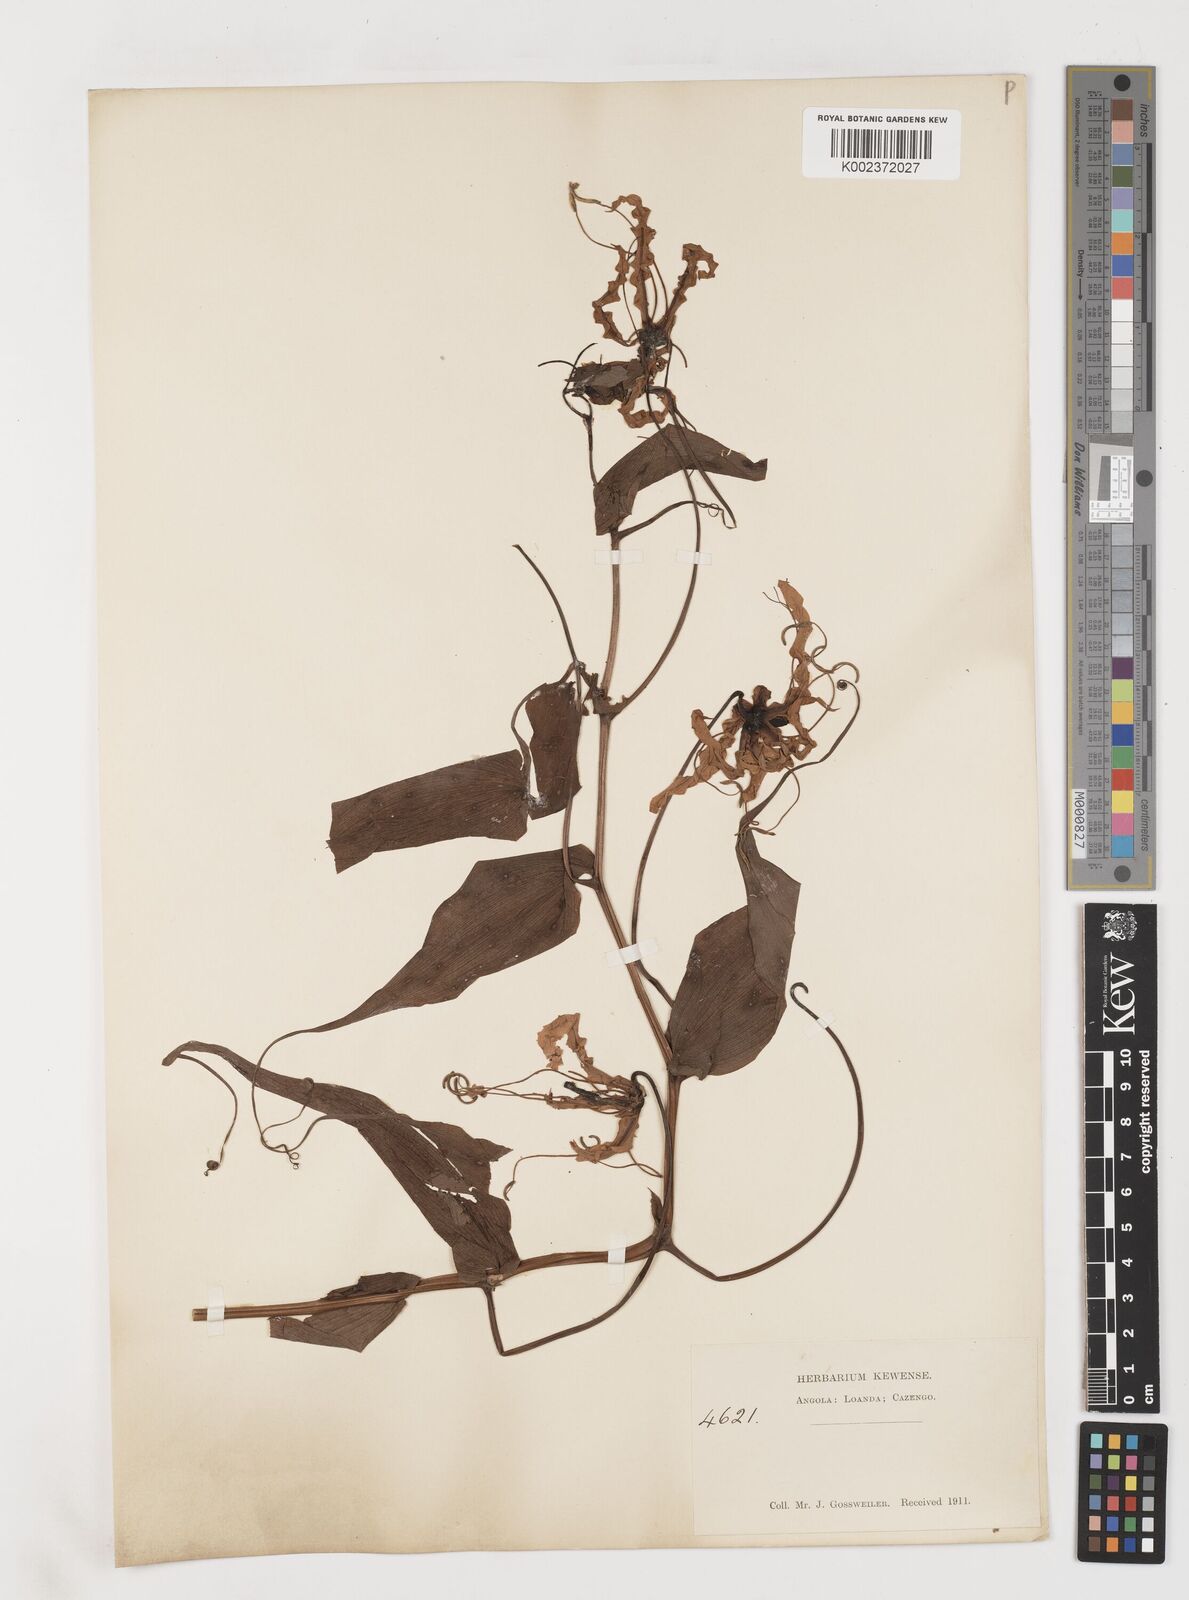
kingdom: Plantae
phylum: Tracheophyta
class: Liliopsida
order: Liliales
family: Colchicaceae
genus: Gloriosa
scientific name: Gloriosa superba
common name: Flame lily
